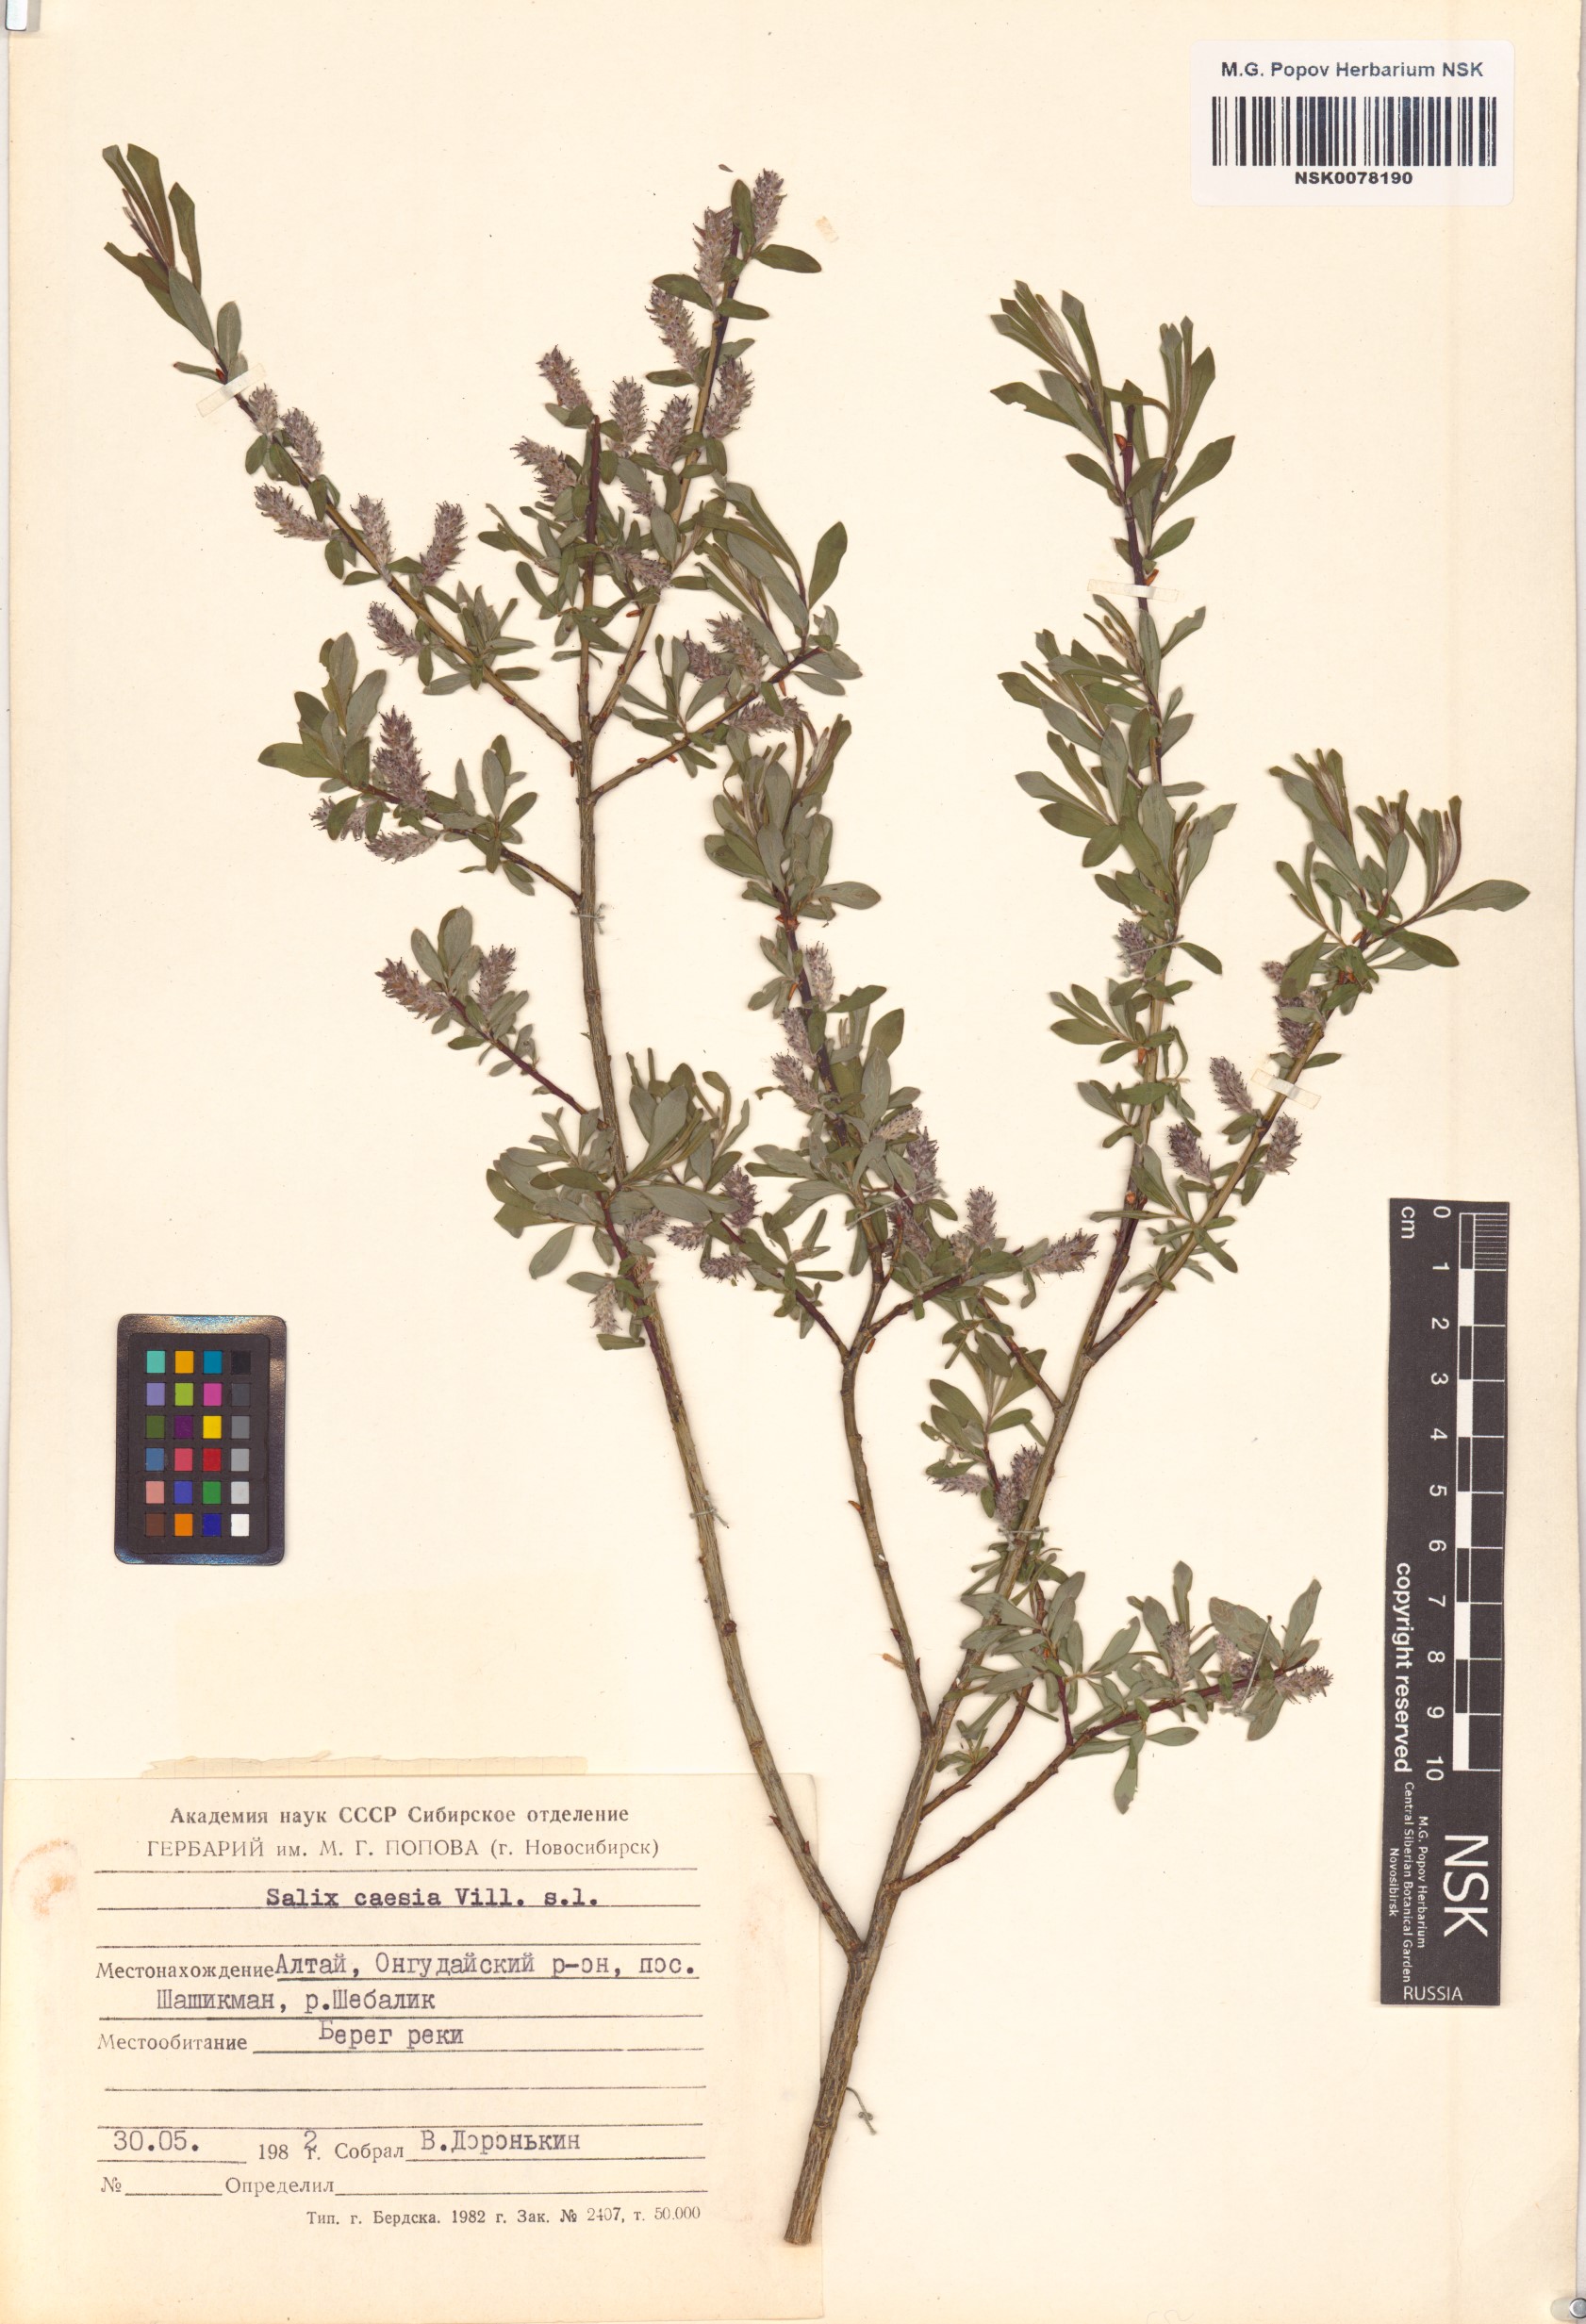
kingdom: Plantae
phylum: Tracheophyta
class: Magnoliopsida
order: Malpighiales
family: Salicaceae
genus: Salix
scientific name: Salix caesia
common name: Blue willow
